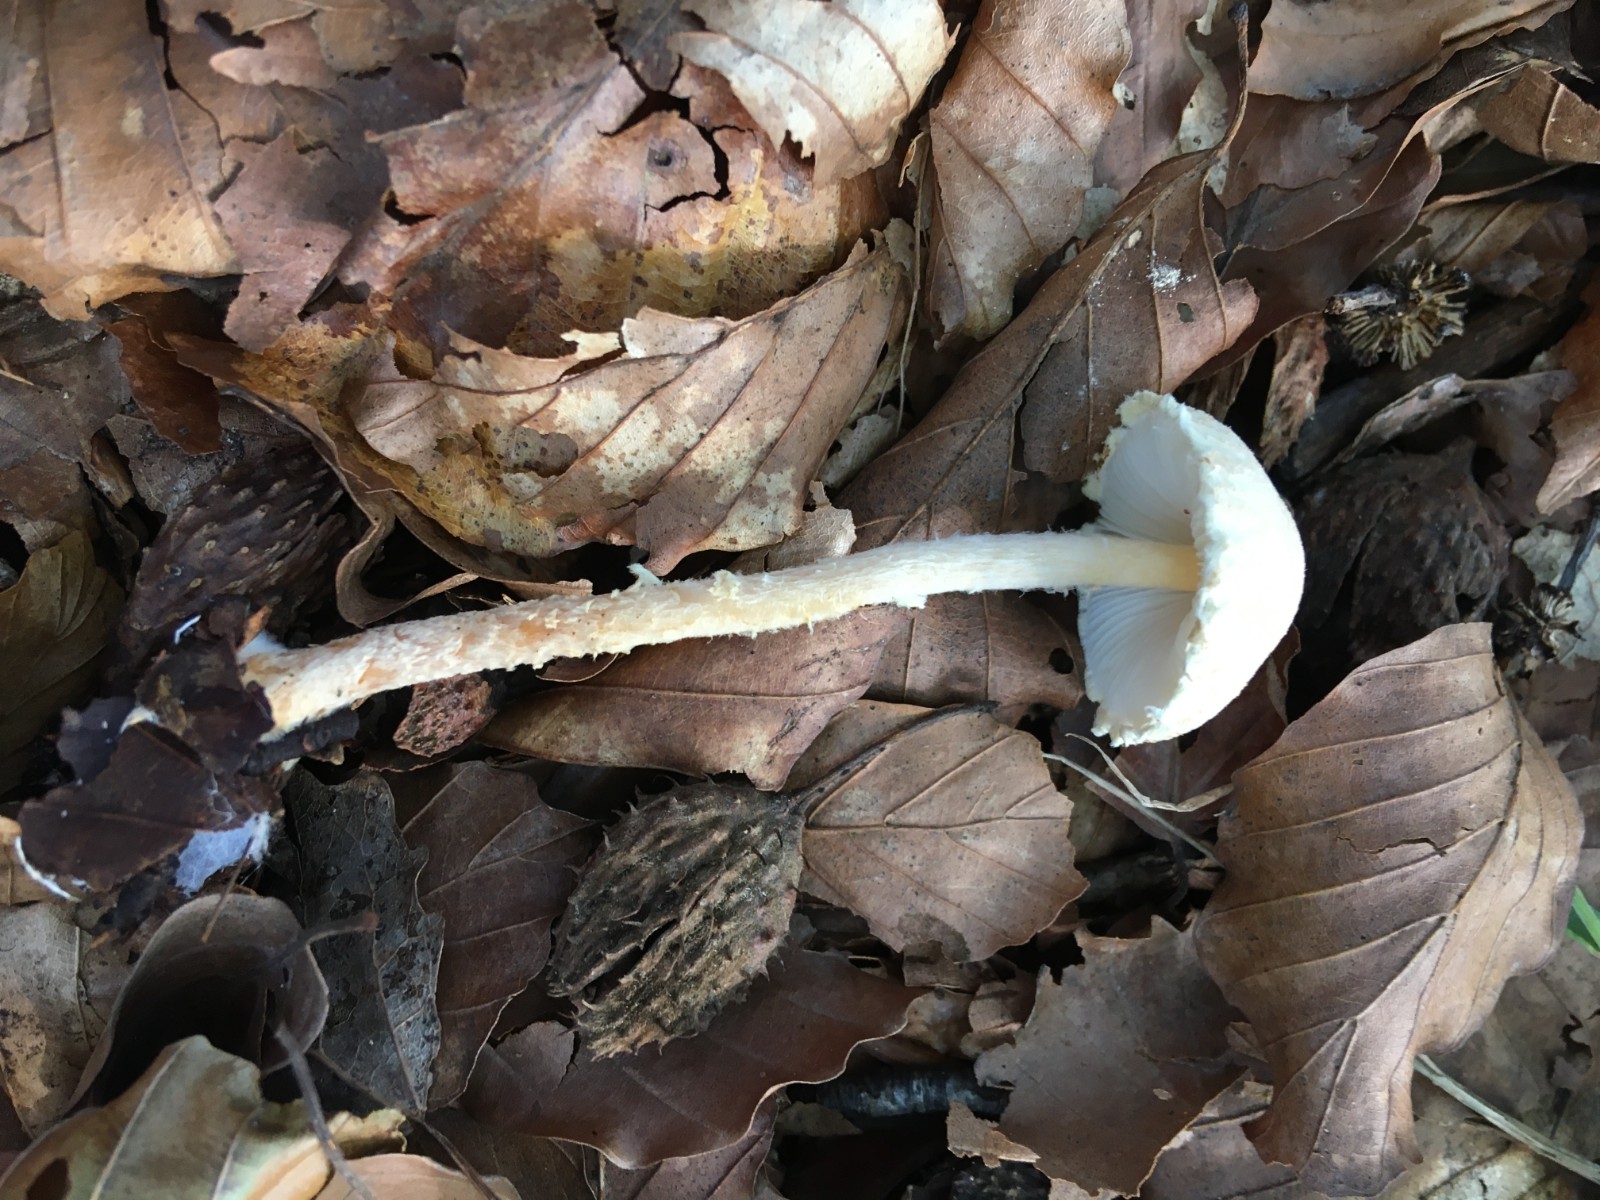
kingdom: Fungi
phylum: Basidiomycota
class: Agaricomycetes
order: Agaricales
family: Agaricaceae
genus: Lepiota
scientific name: Lepiota clypeolaria
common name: flosset parasolhat
